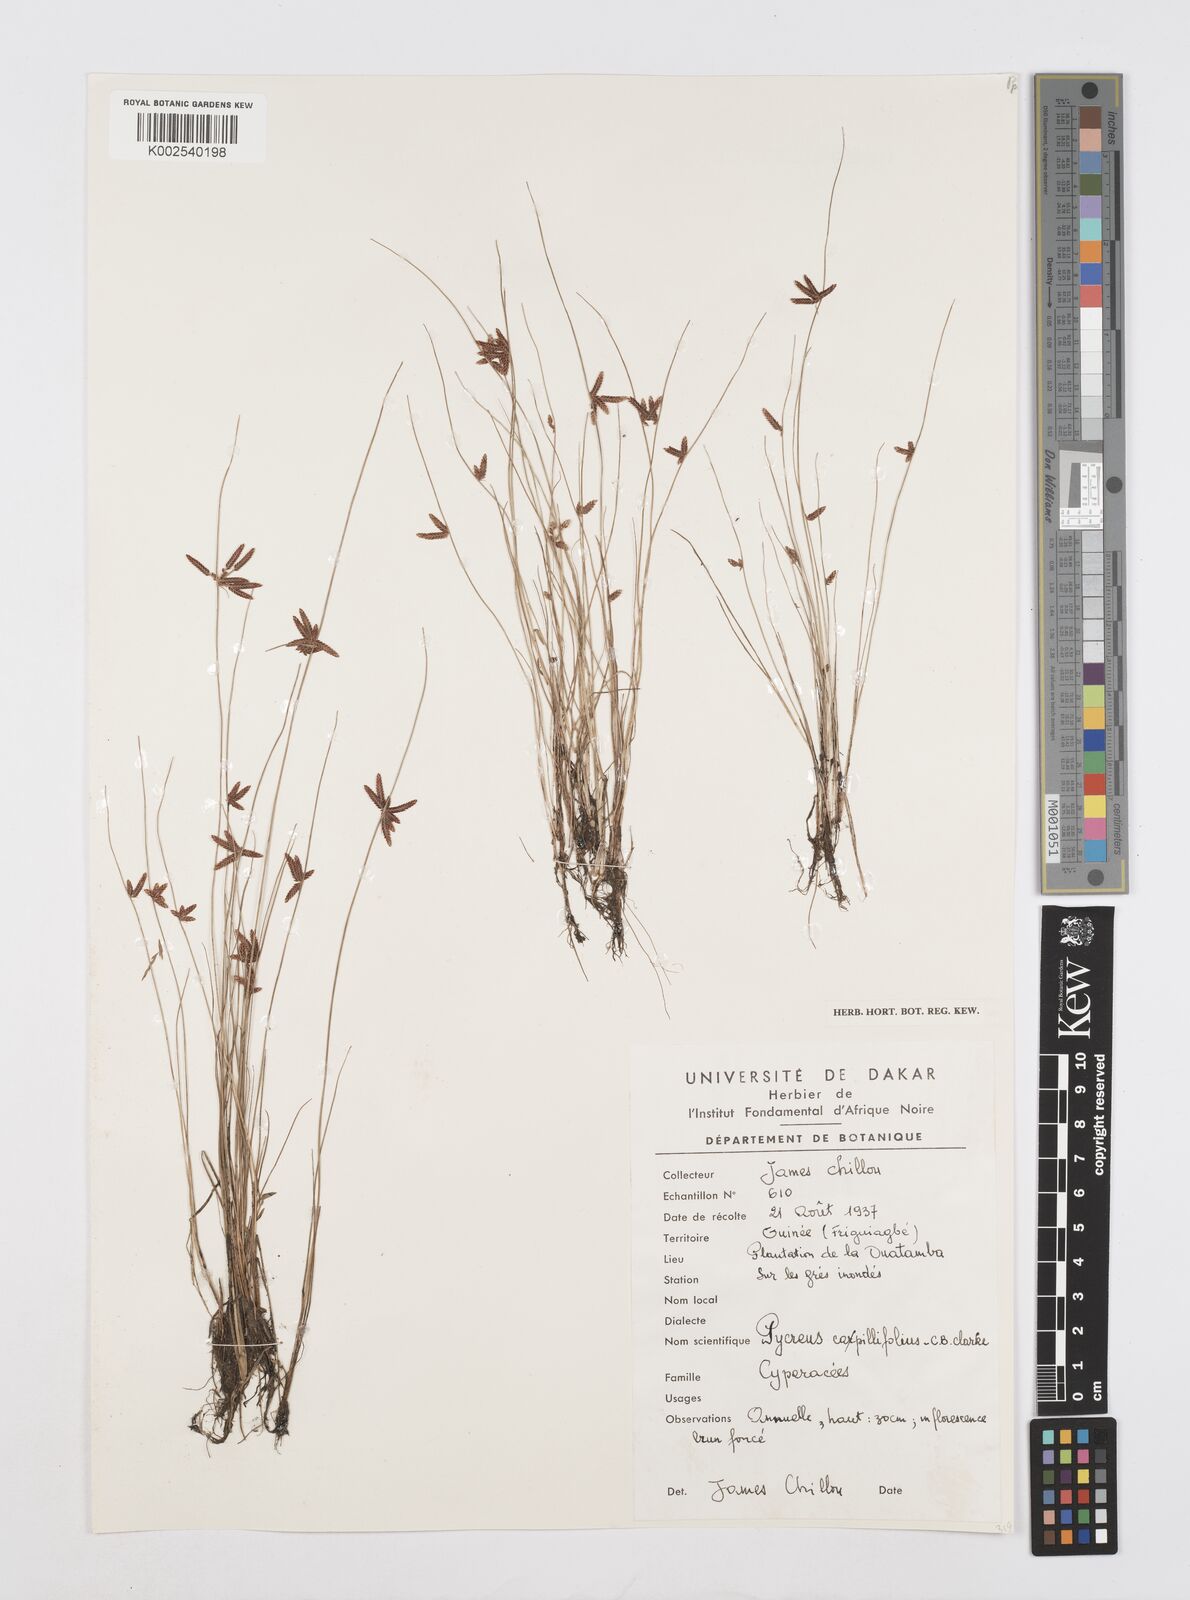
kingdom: Plantae
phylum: Tracheophyta
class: Liliopsida
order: Poales
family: Cyperaceae
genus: Cyperus
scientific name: Cyperus capillifolius
